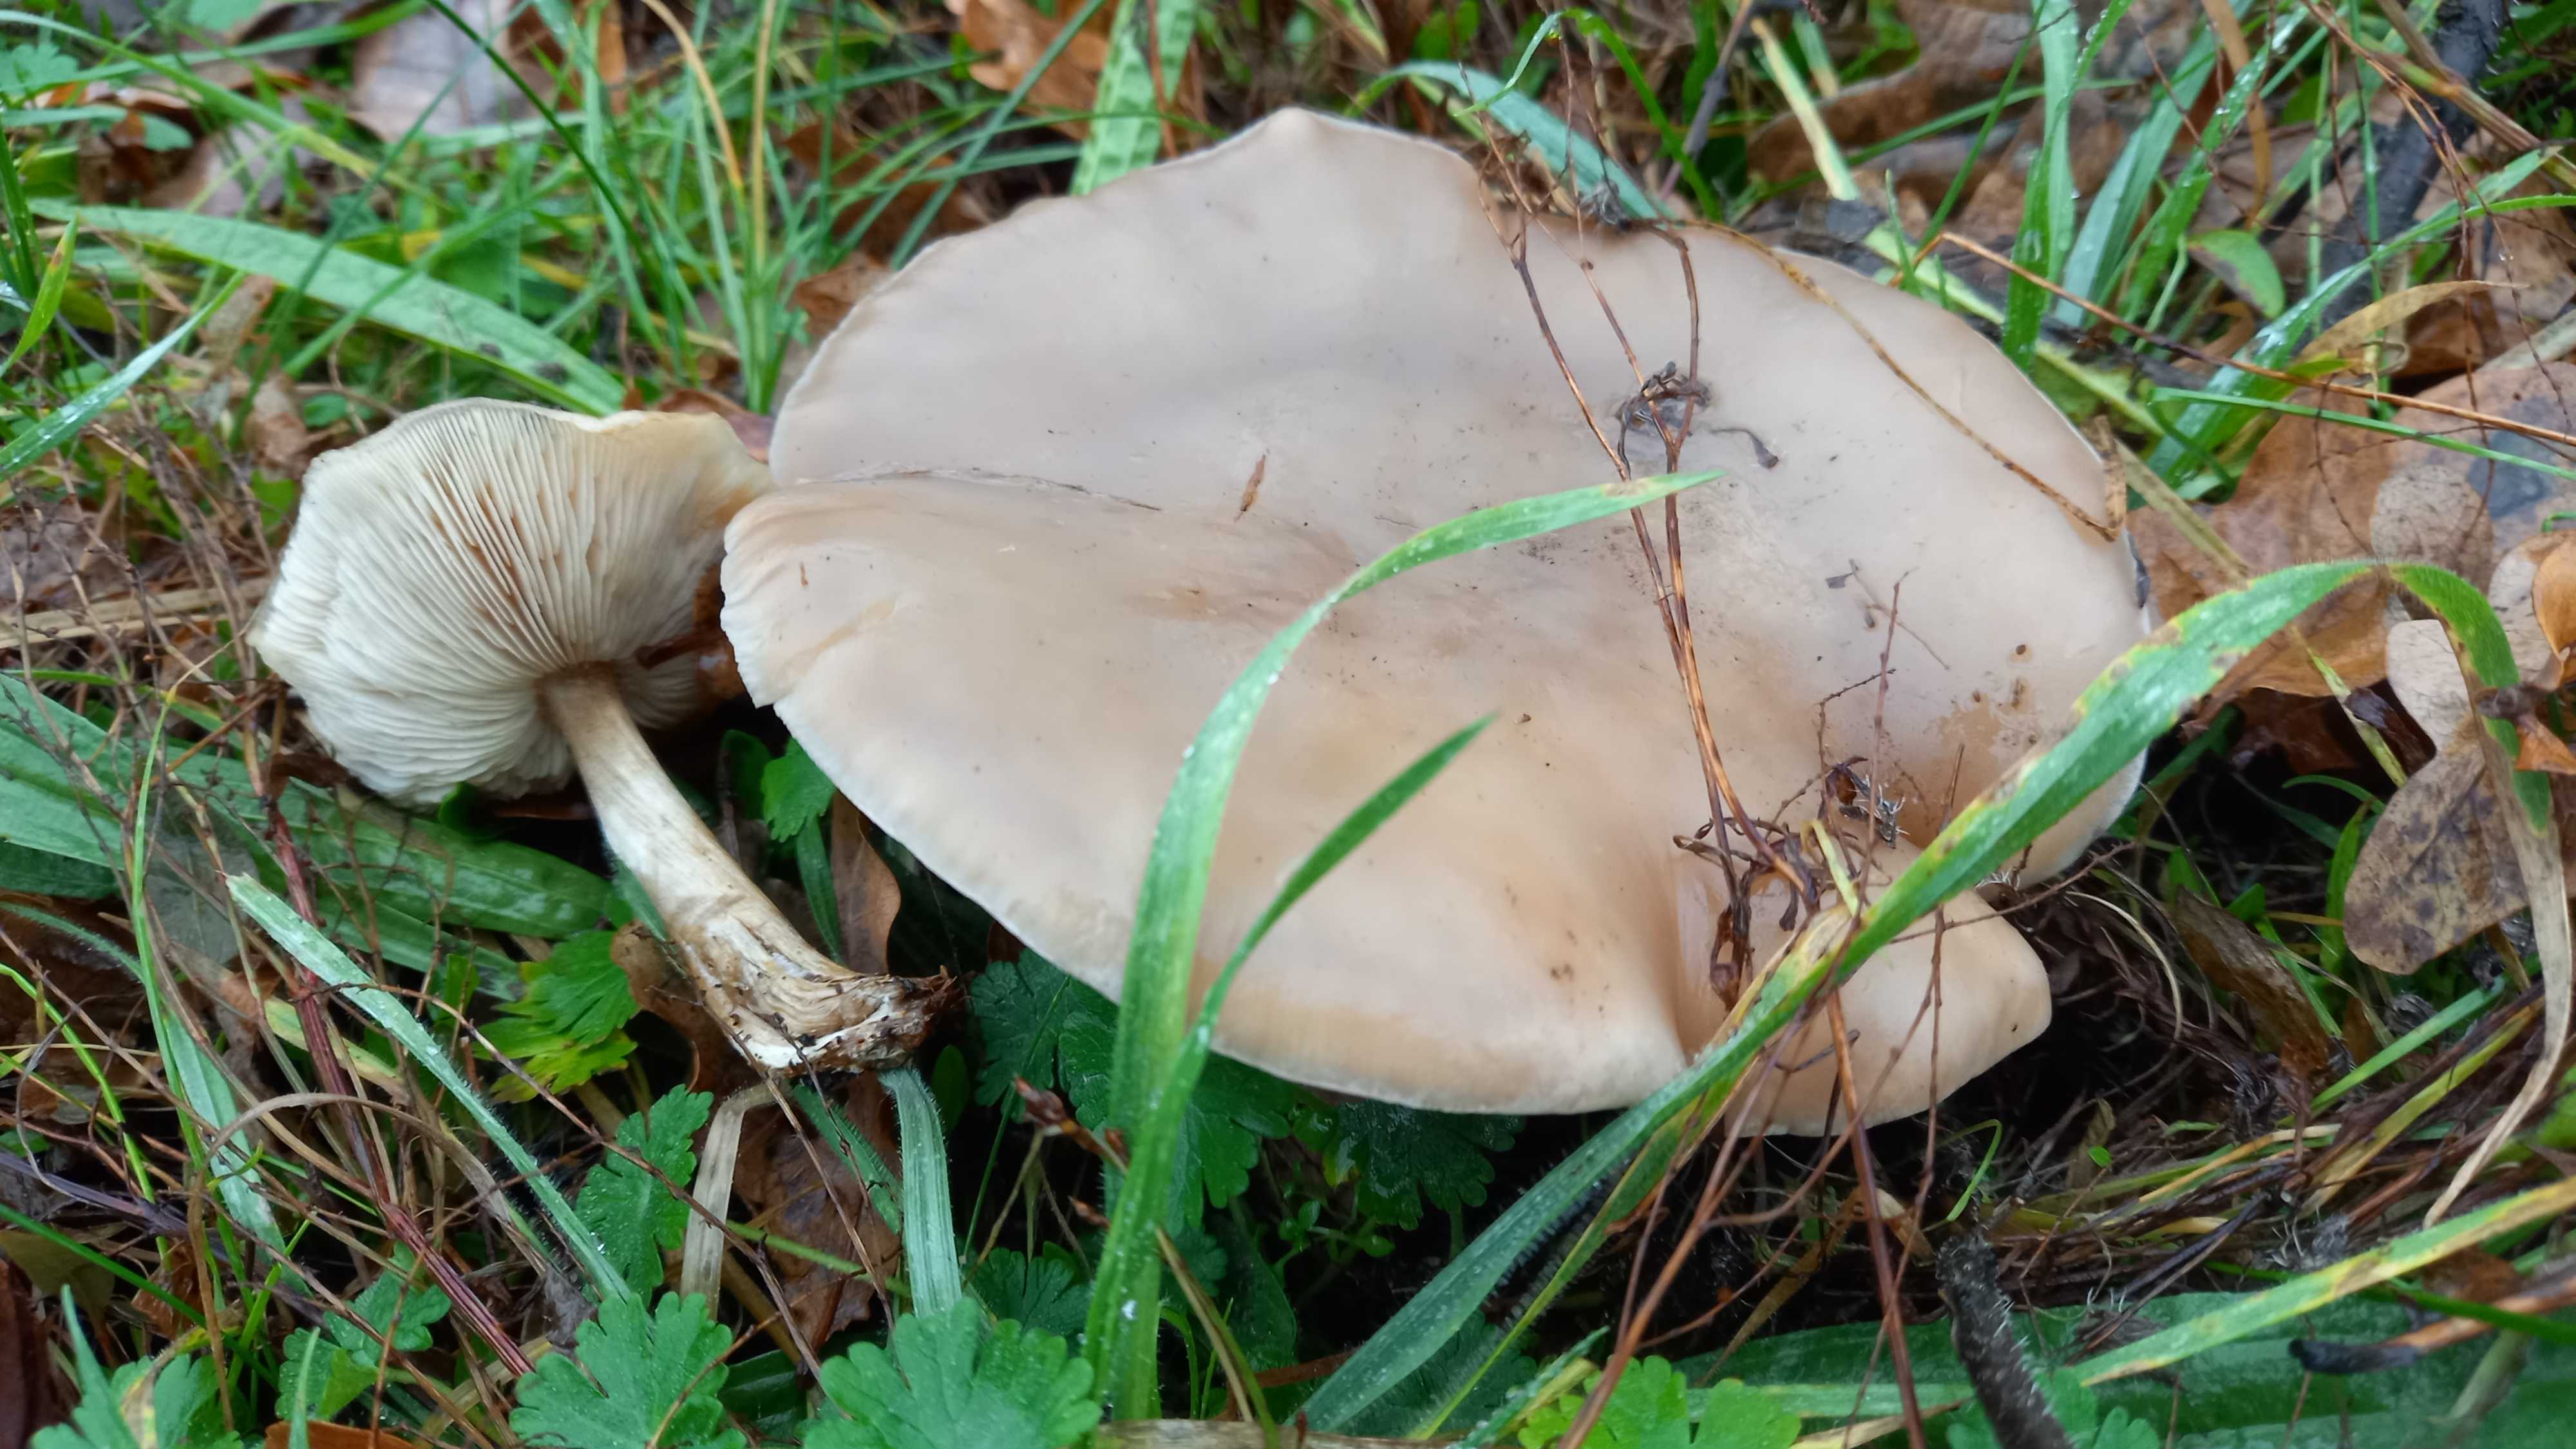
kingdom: Fungi
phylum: Basidiomycota
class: Agaricomycetes
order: Agaricales
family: Tricholomataceae
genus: Melanoleuca
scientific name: Melanoleuca
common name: munkehat
